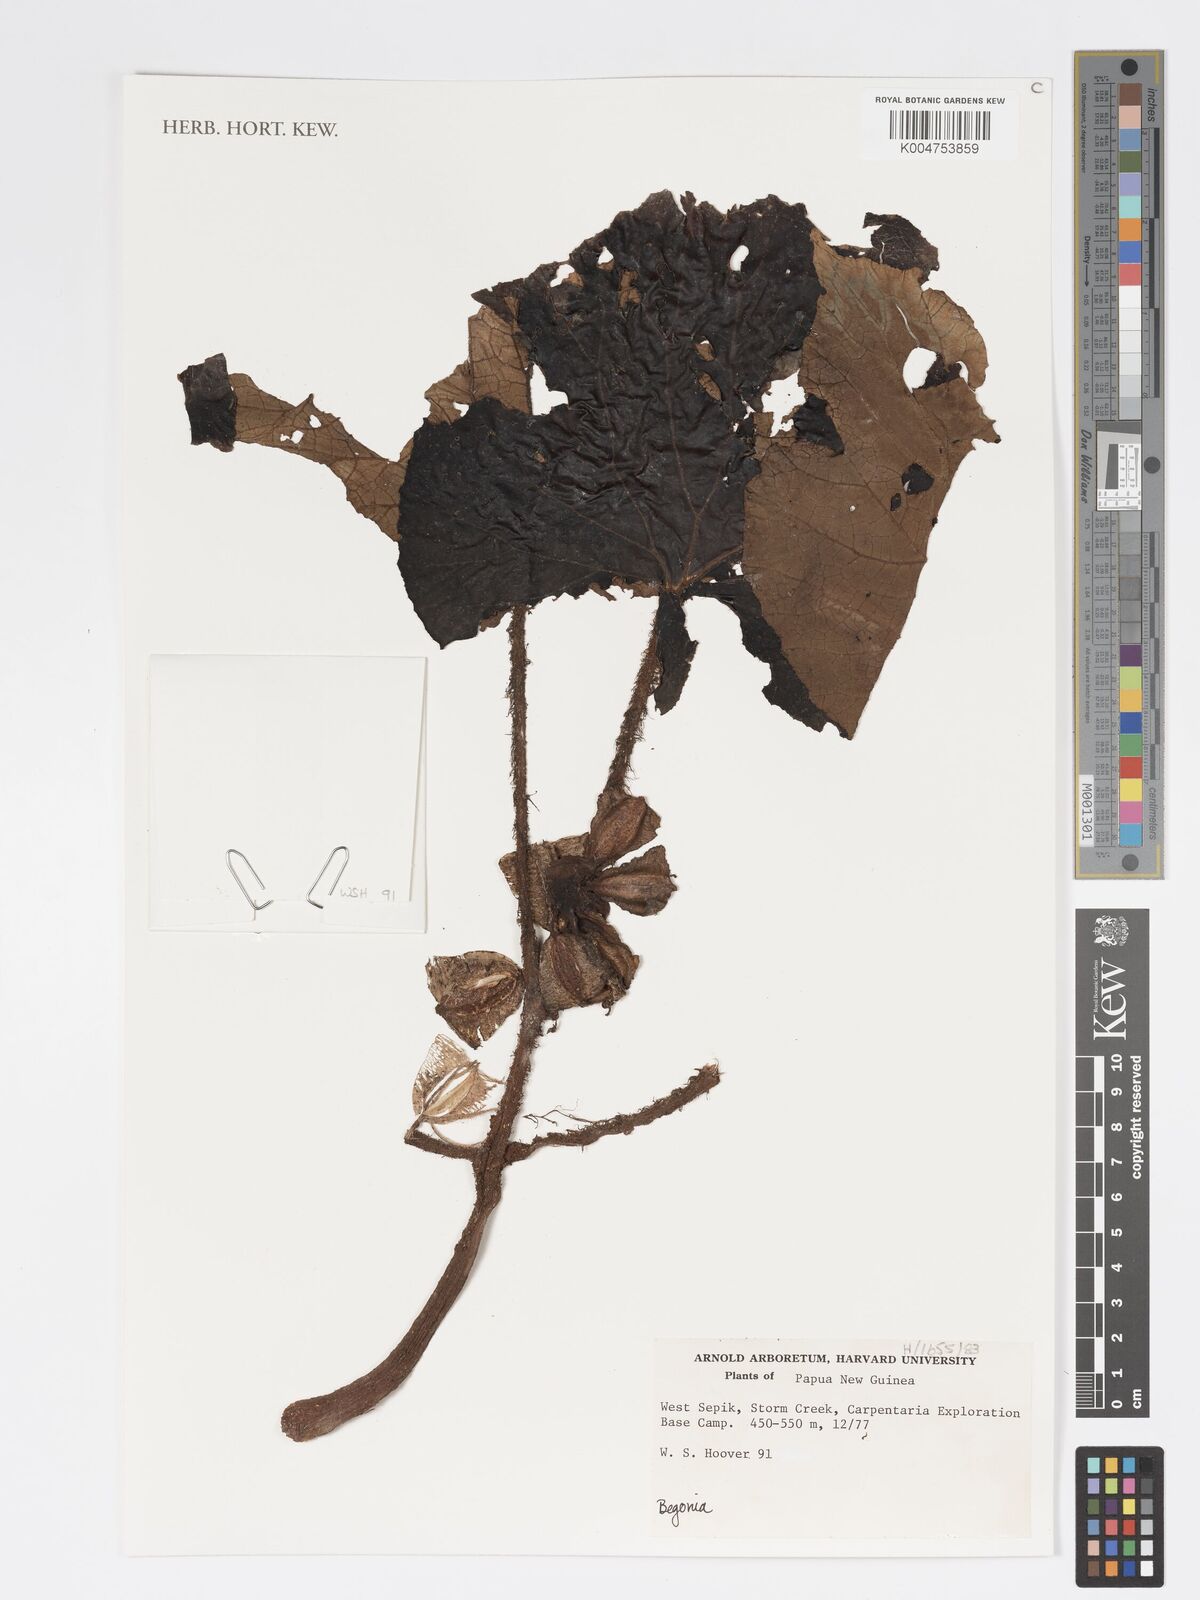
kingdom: Plantae
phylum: Tracheophyta
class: Magnoliopsida
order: Cucurbitales
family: Begoniaceae
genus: Begonia
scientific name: Begonia
